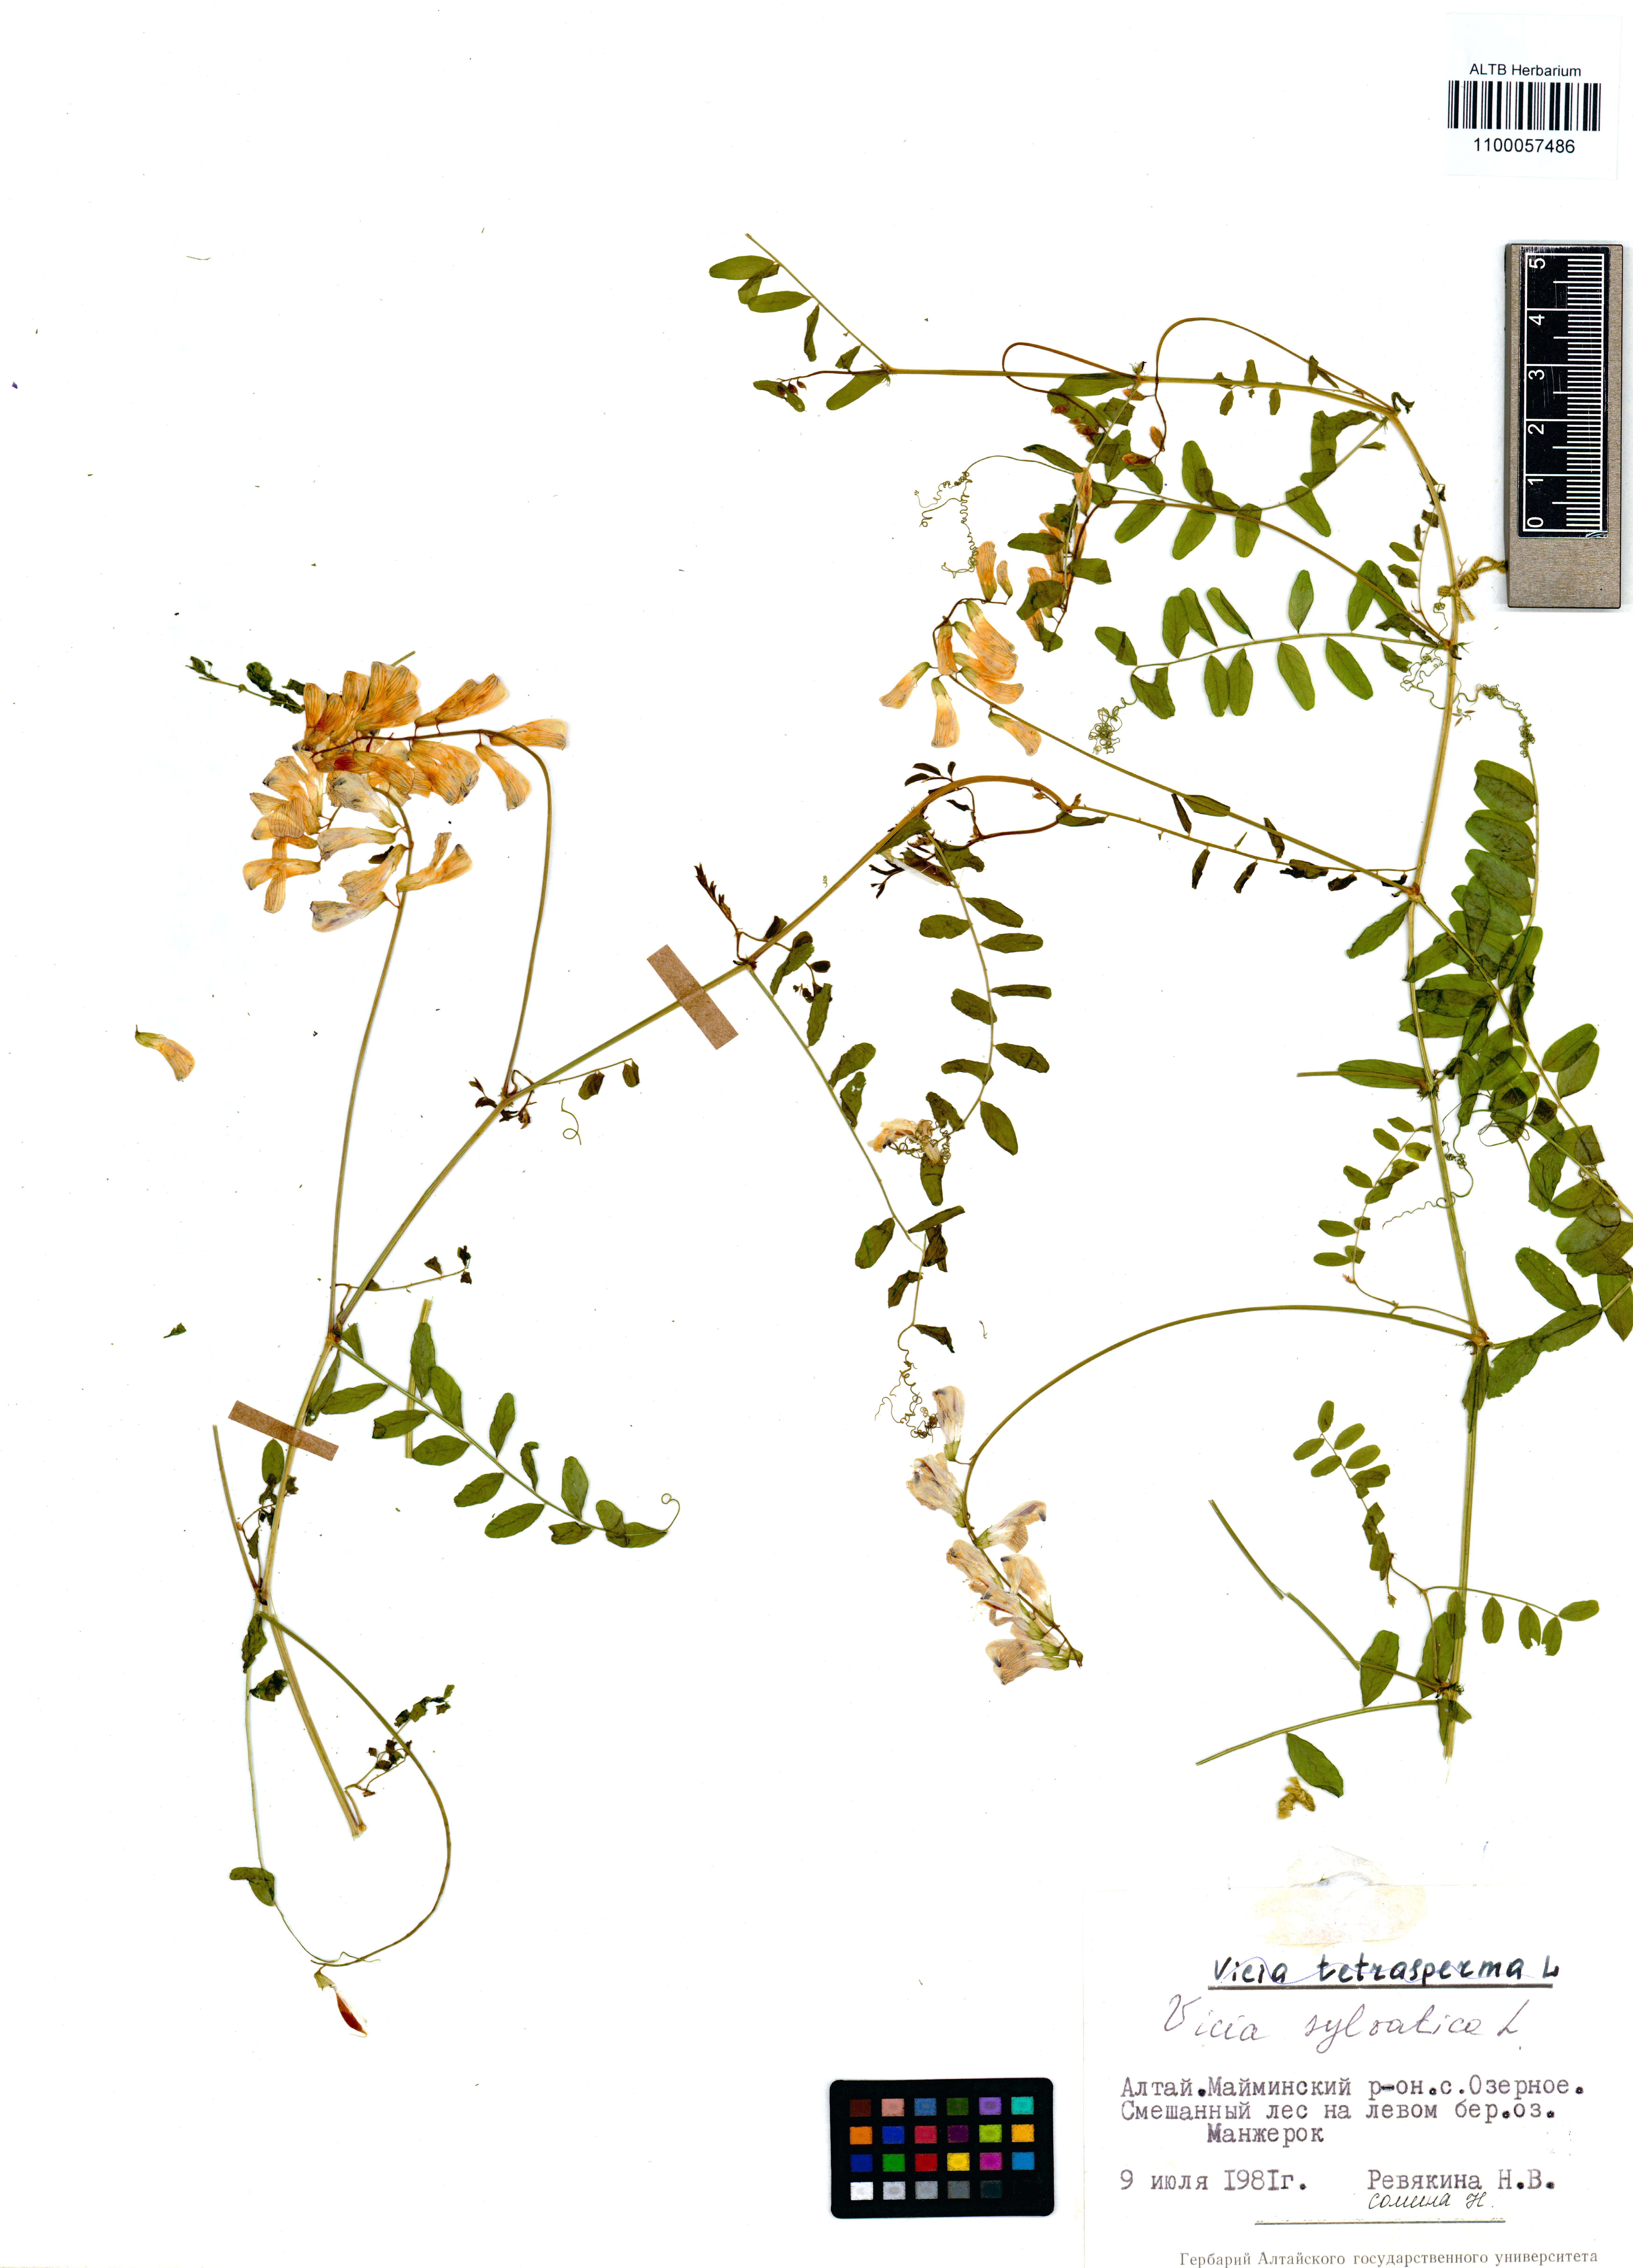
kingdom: Plantae
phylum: Tracheophyta
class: Magnoliopsida
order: Fabales
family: Fabaceae
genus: Vicia
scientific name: Vicia sylvatica
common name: Wood vetch
